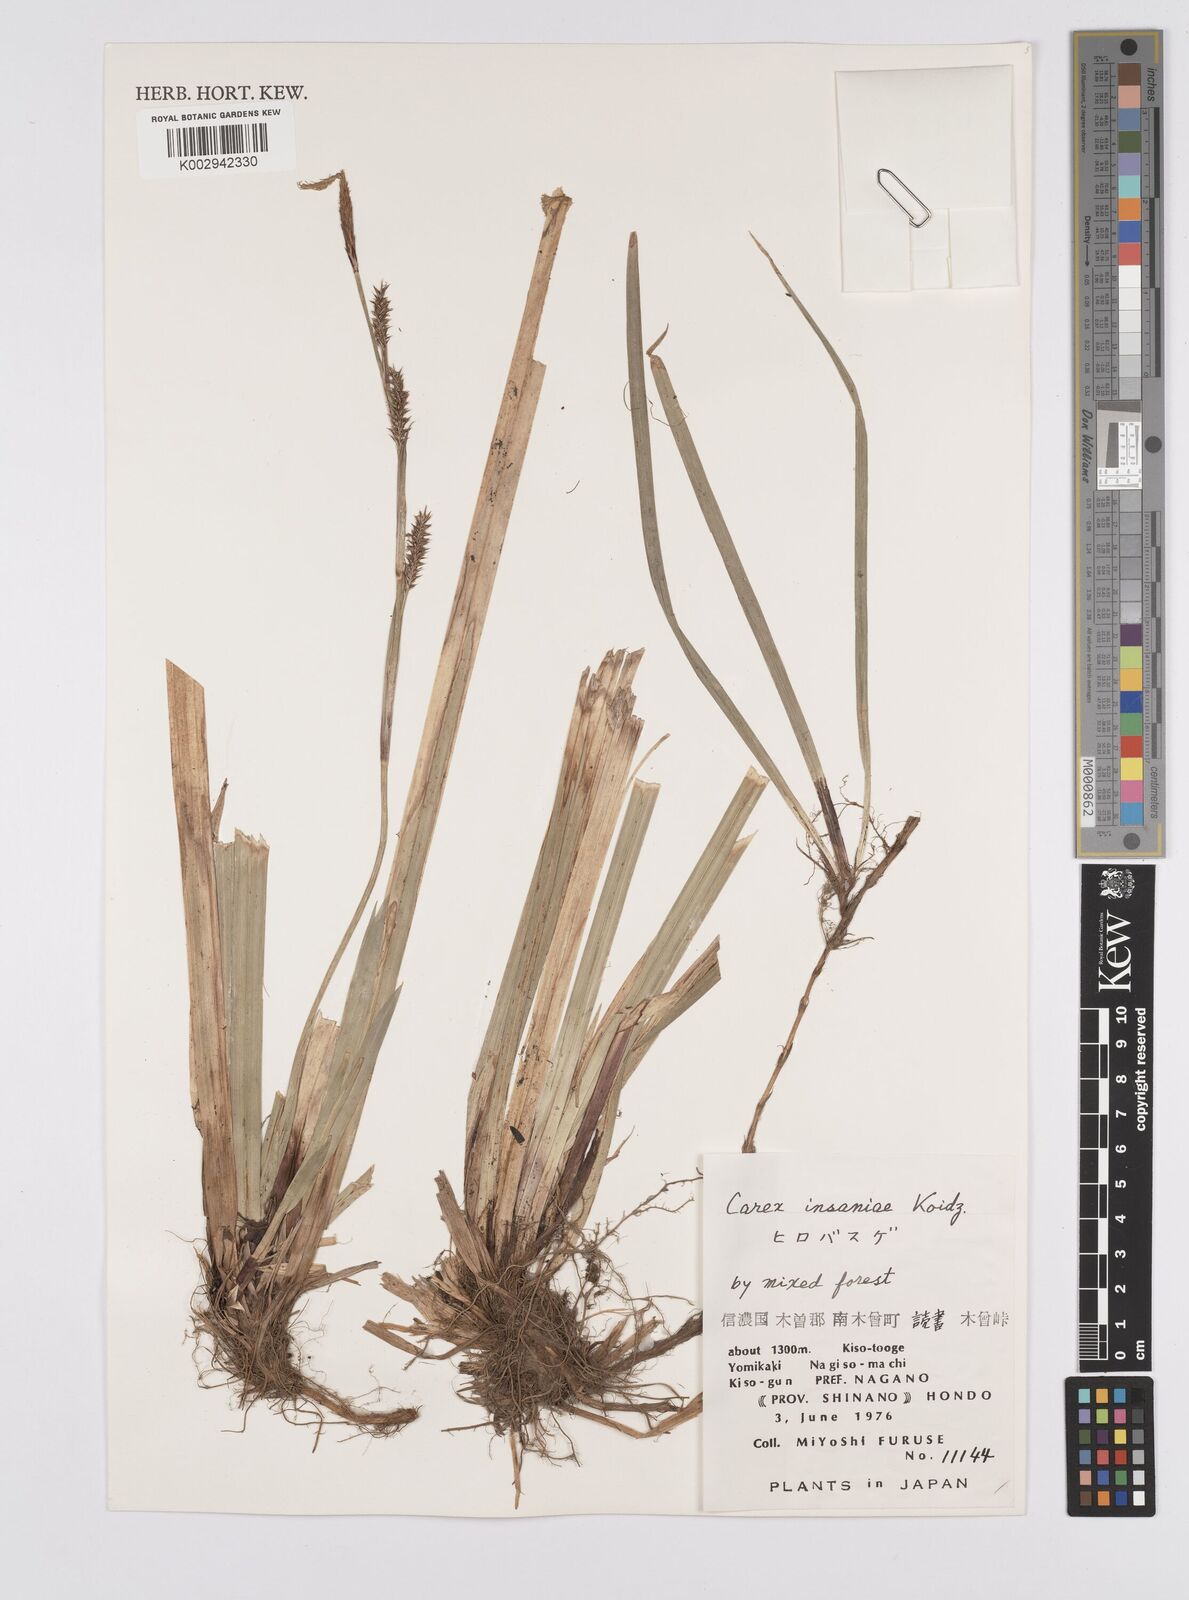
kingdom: Plantae
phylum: Tracheophyta
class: Liliopsida
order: Poales
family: Cyperaceae
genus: Carex
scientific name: Carex insaniae
